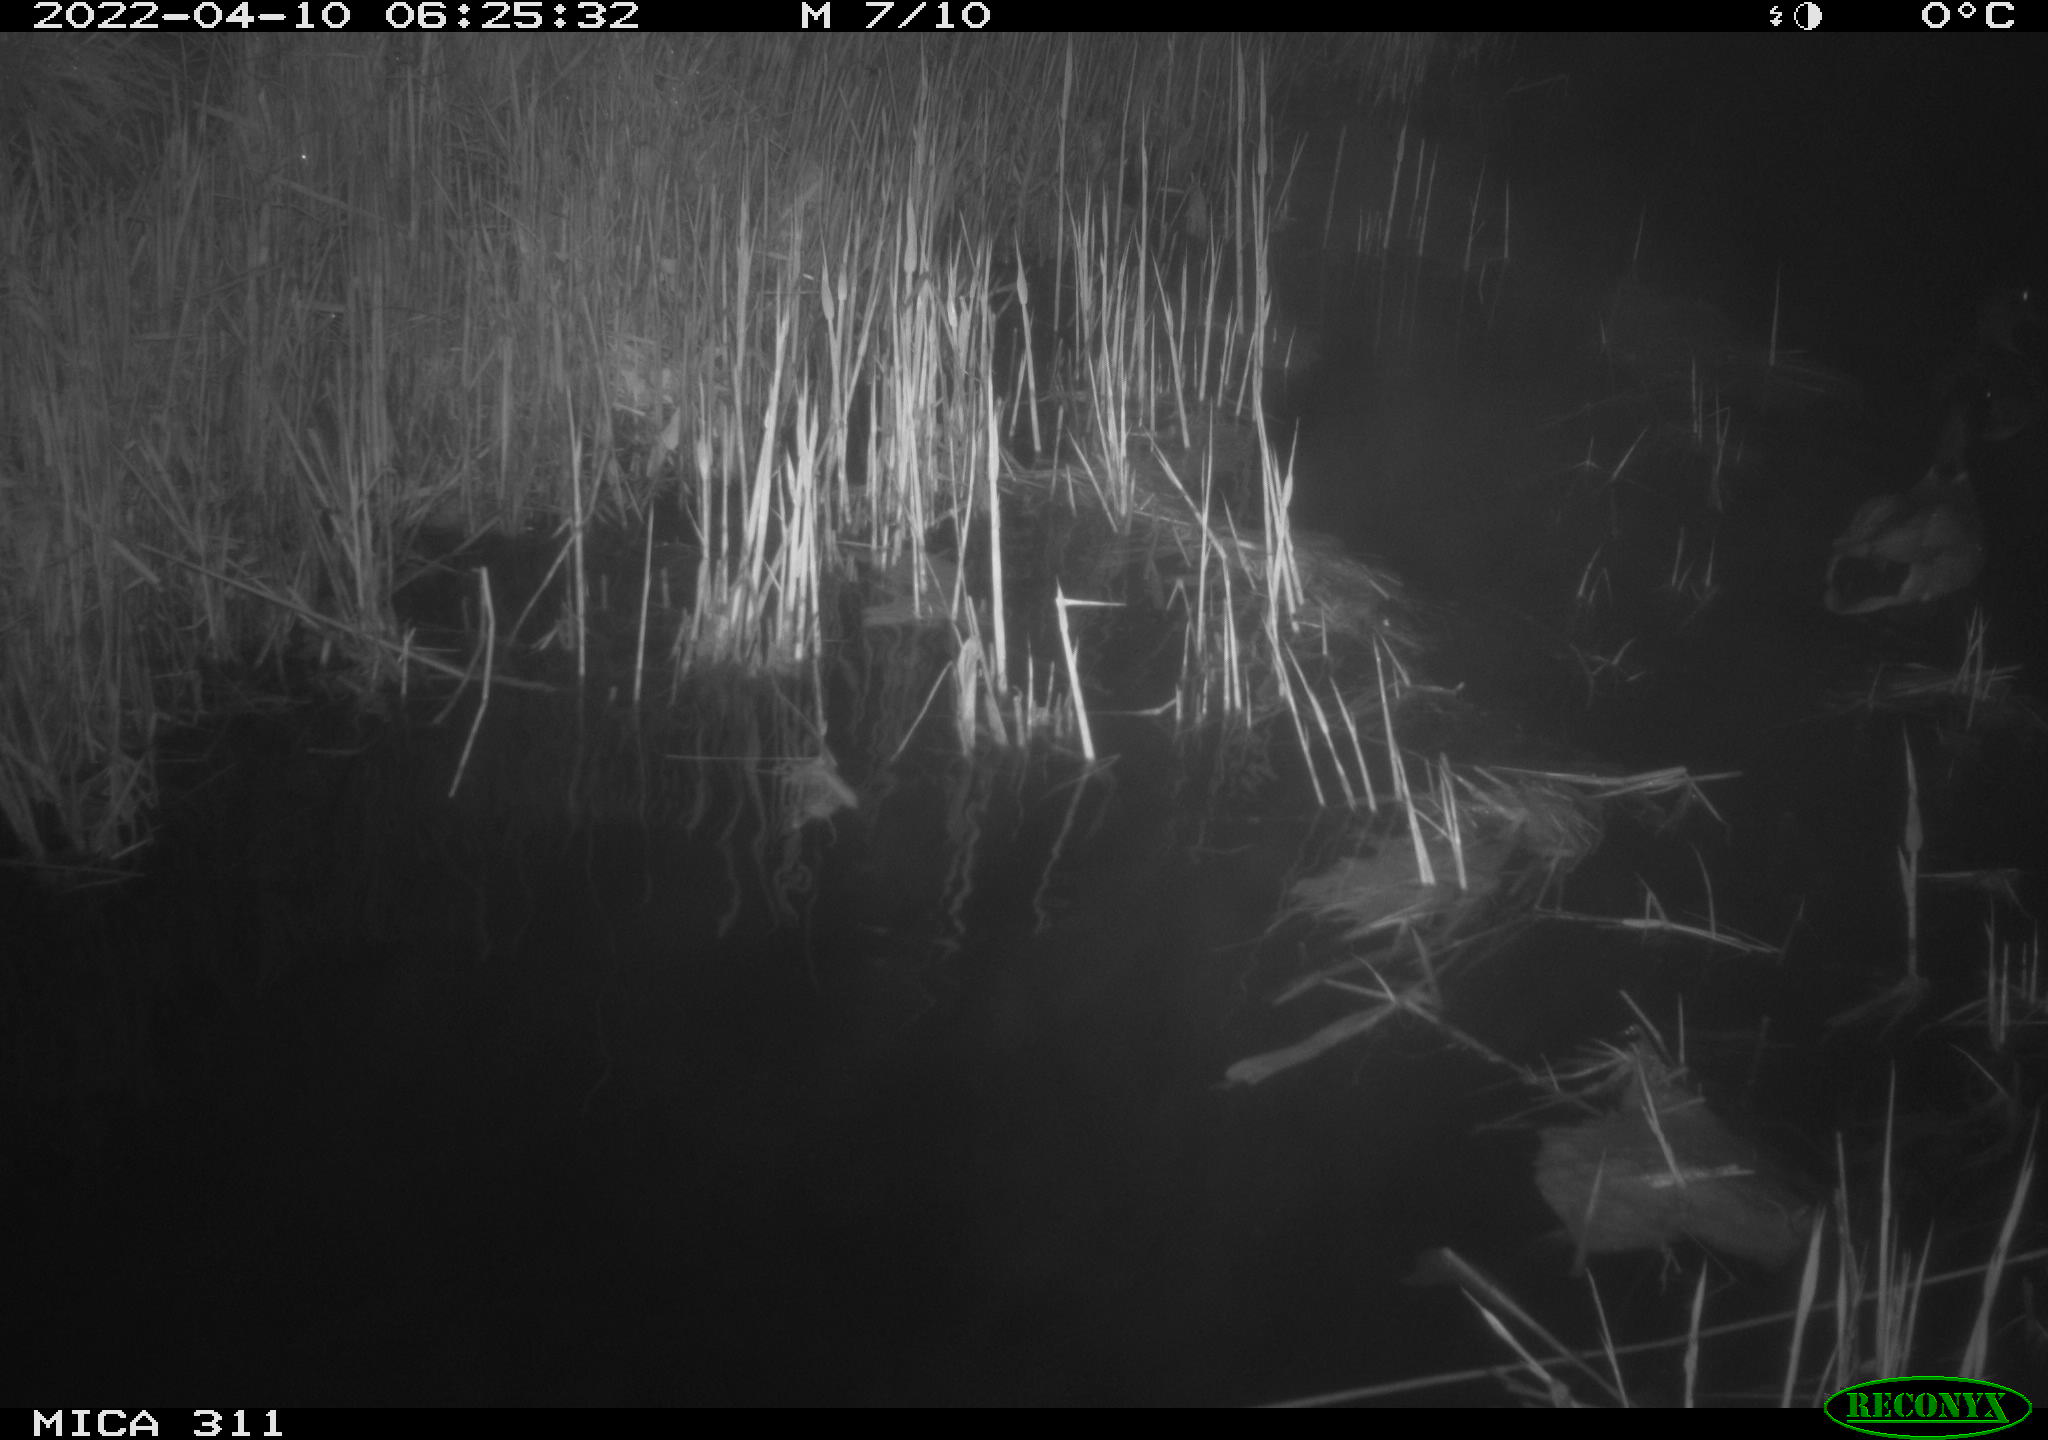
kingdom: Animalia
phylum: Chordata
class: Aves
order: Anseriformes
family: Anatidae
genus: Anas
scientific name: Anas platyrhynchos
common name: Mallard
